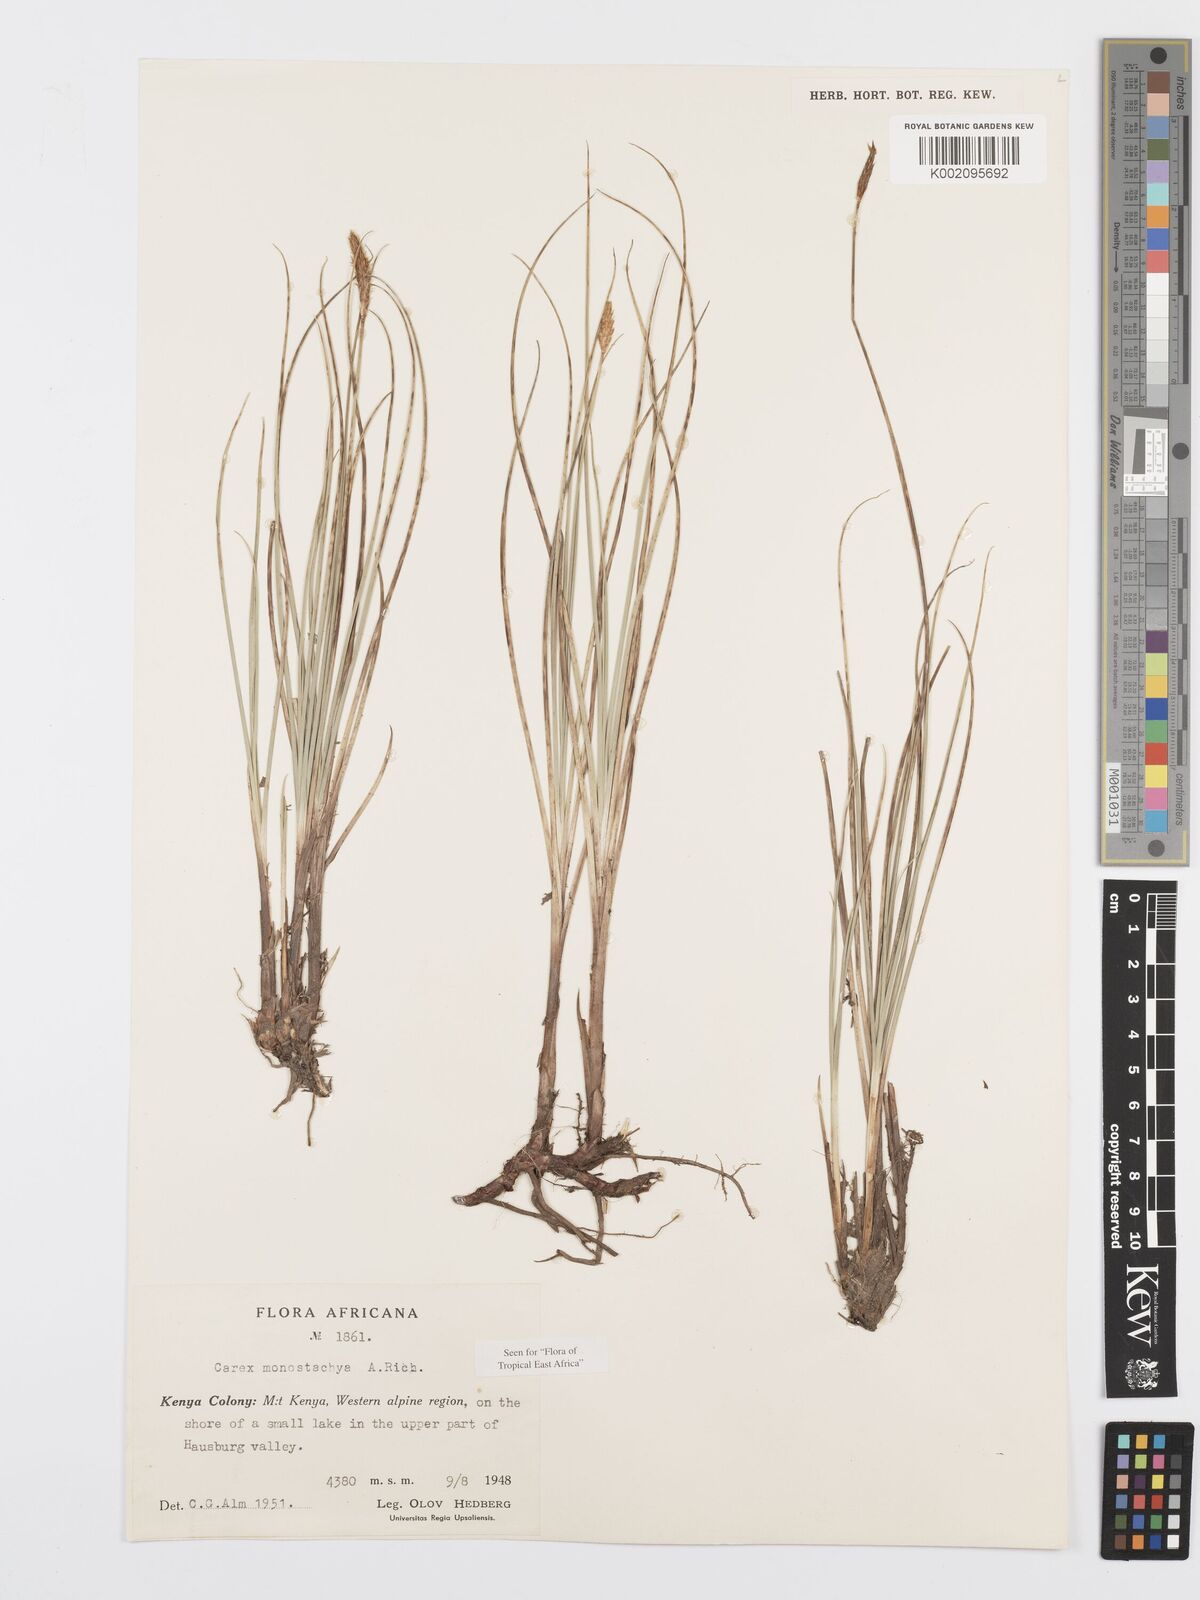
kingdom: Plantae
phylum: Tracheophyta
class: Liliopsida
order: Poales
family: Cyperaceae
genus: Carex
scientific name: Carex monostachya
